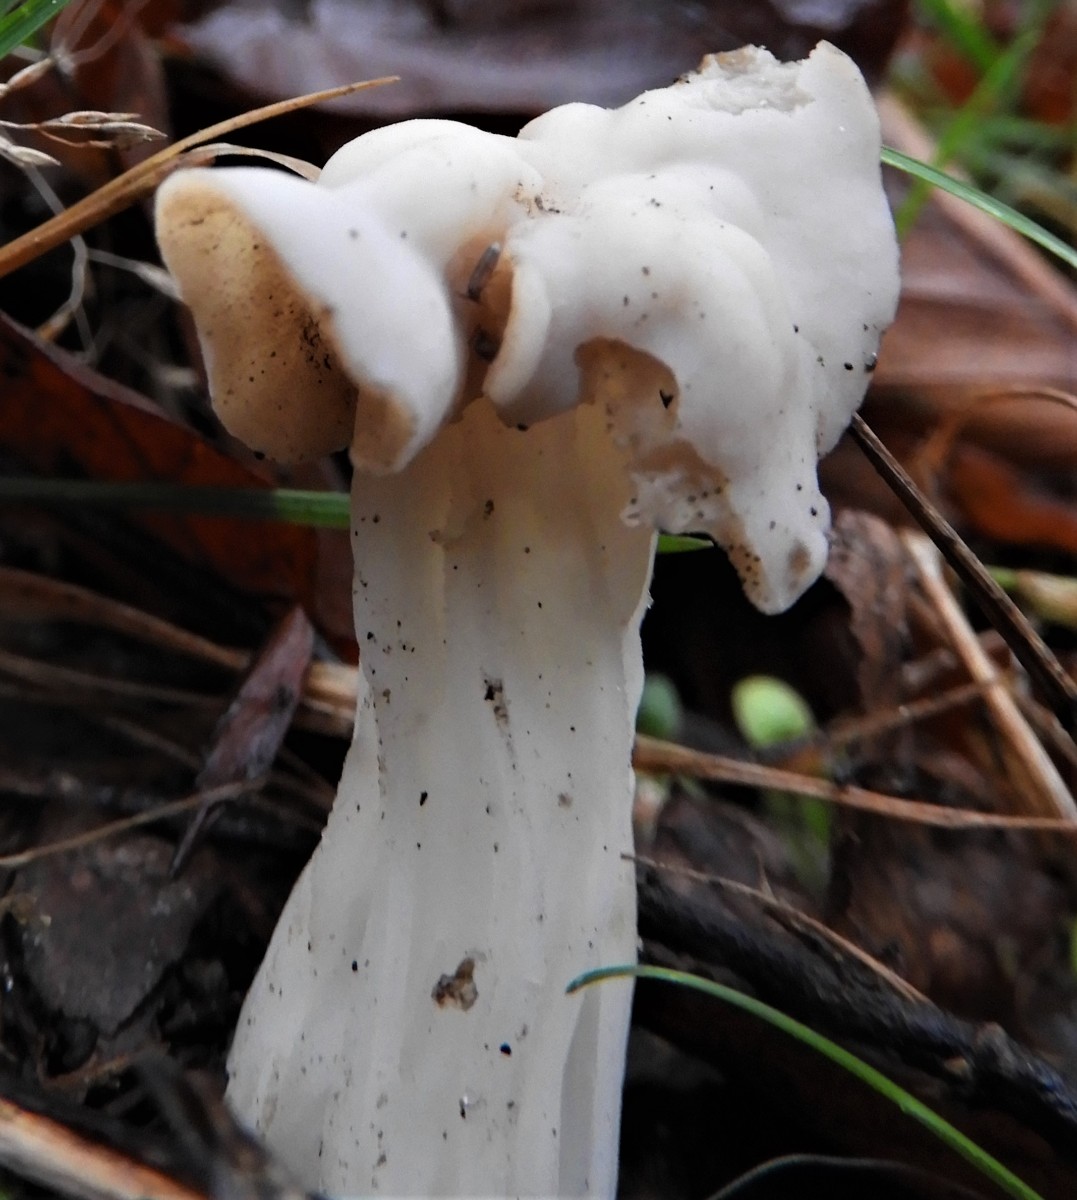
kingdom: Fungi
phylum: Ascomycota
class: Pezizomycetes
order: Pezizales
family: Helvellaceae
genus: Helvella
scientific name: Helvella crispa
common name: kruset foldhat
